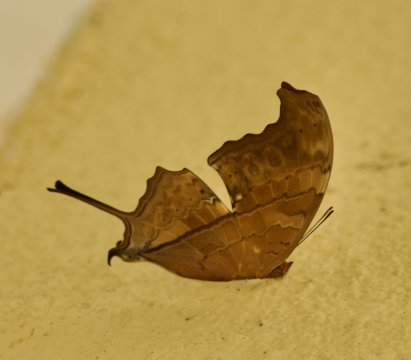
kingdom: Animalia
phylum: Arthropoda
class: Insecta
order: Lepidoptera
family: Nymphalidae
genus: Marpesia
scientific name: Marpesia petreus
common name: Ruddy Daggerwing
